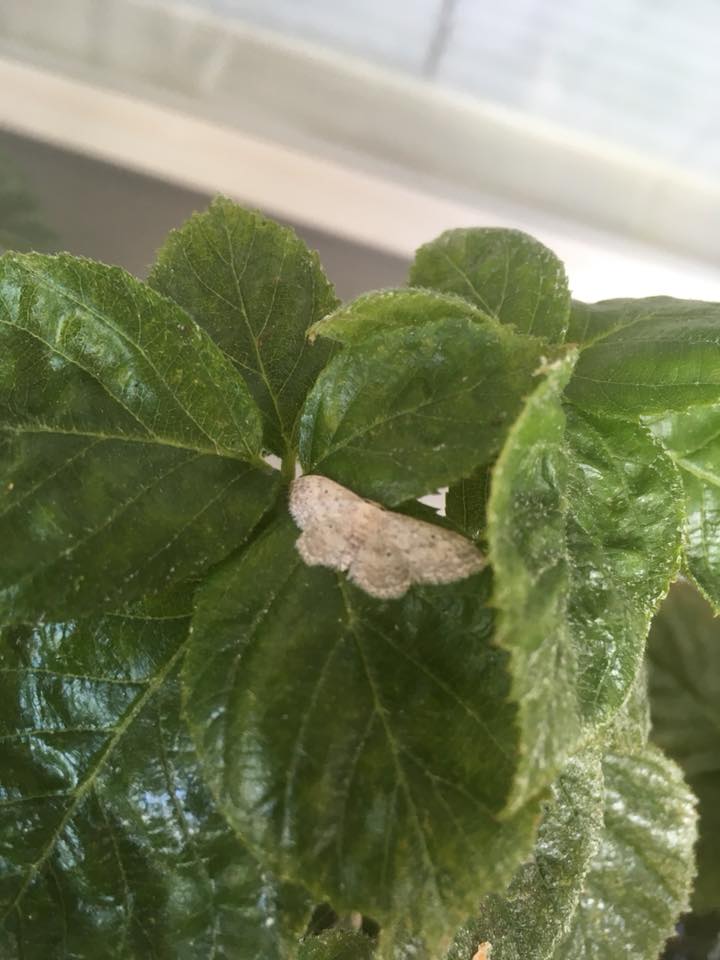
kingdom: Animalia
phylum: Arthropoda
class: Insecta
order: Lepidoptera
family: Geometridae
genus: Idaea
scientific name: Idaea seriata
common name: Small dusty wave
